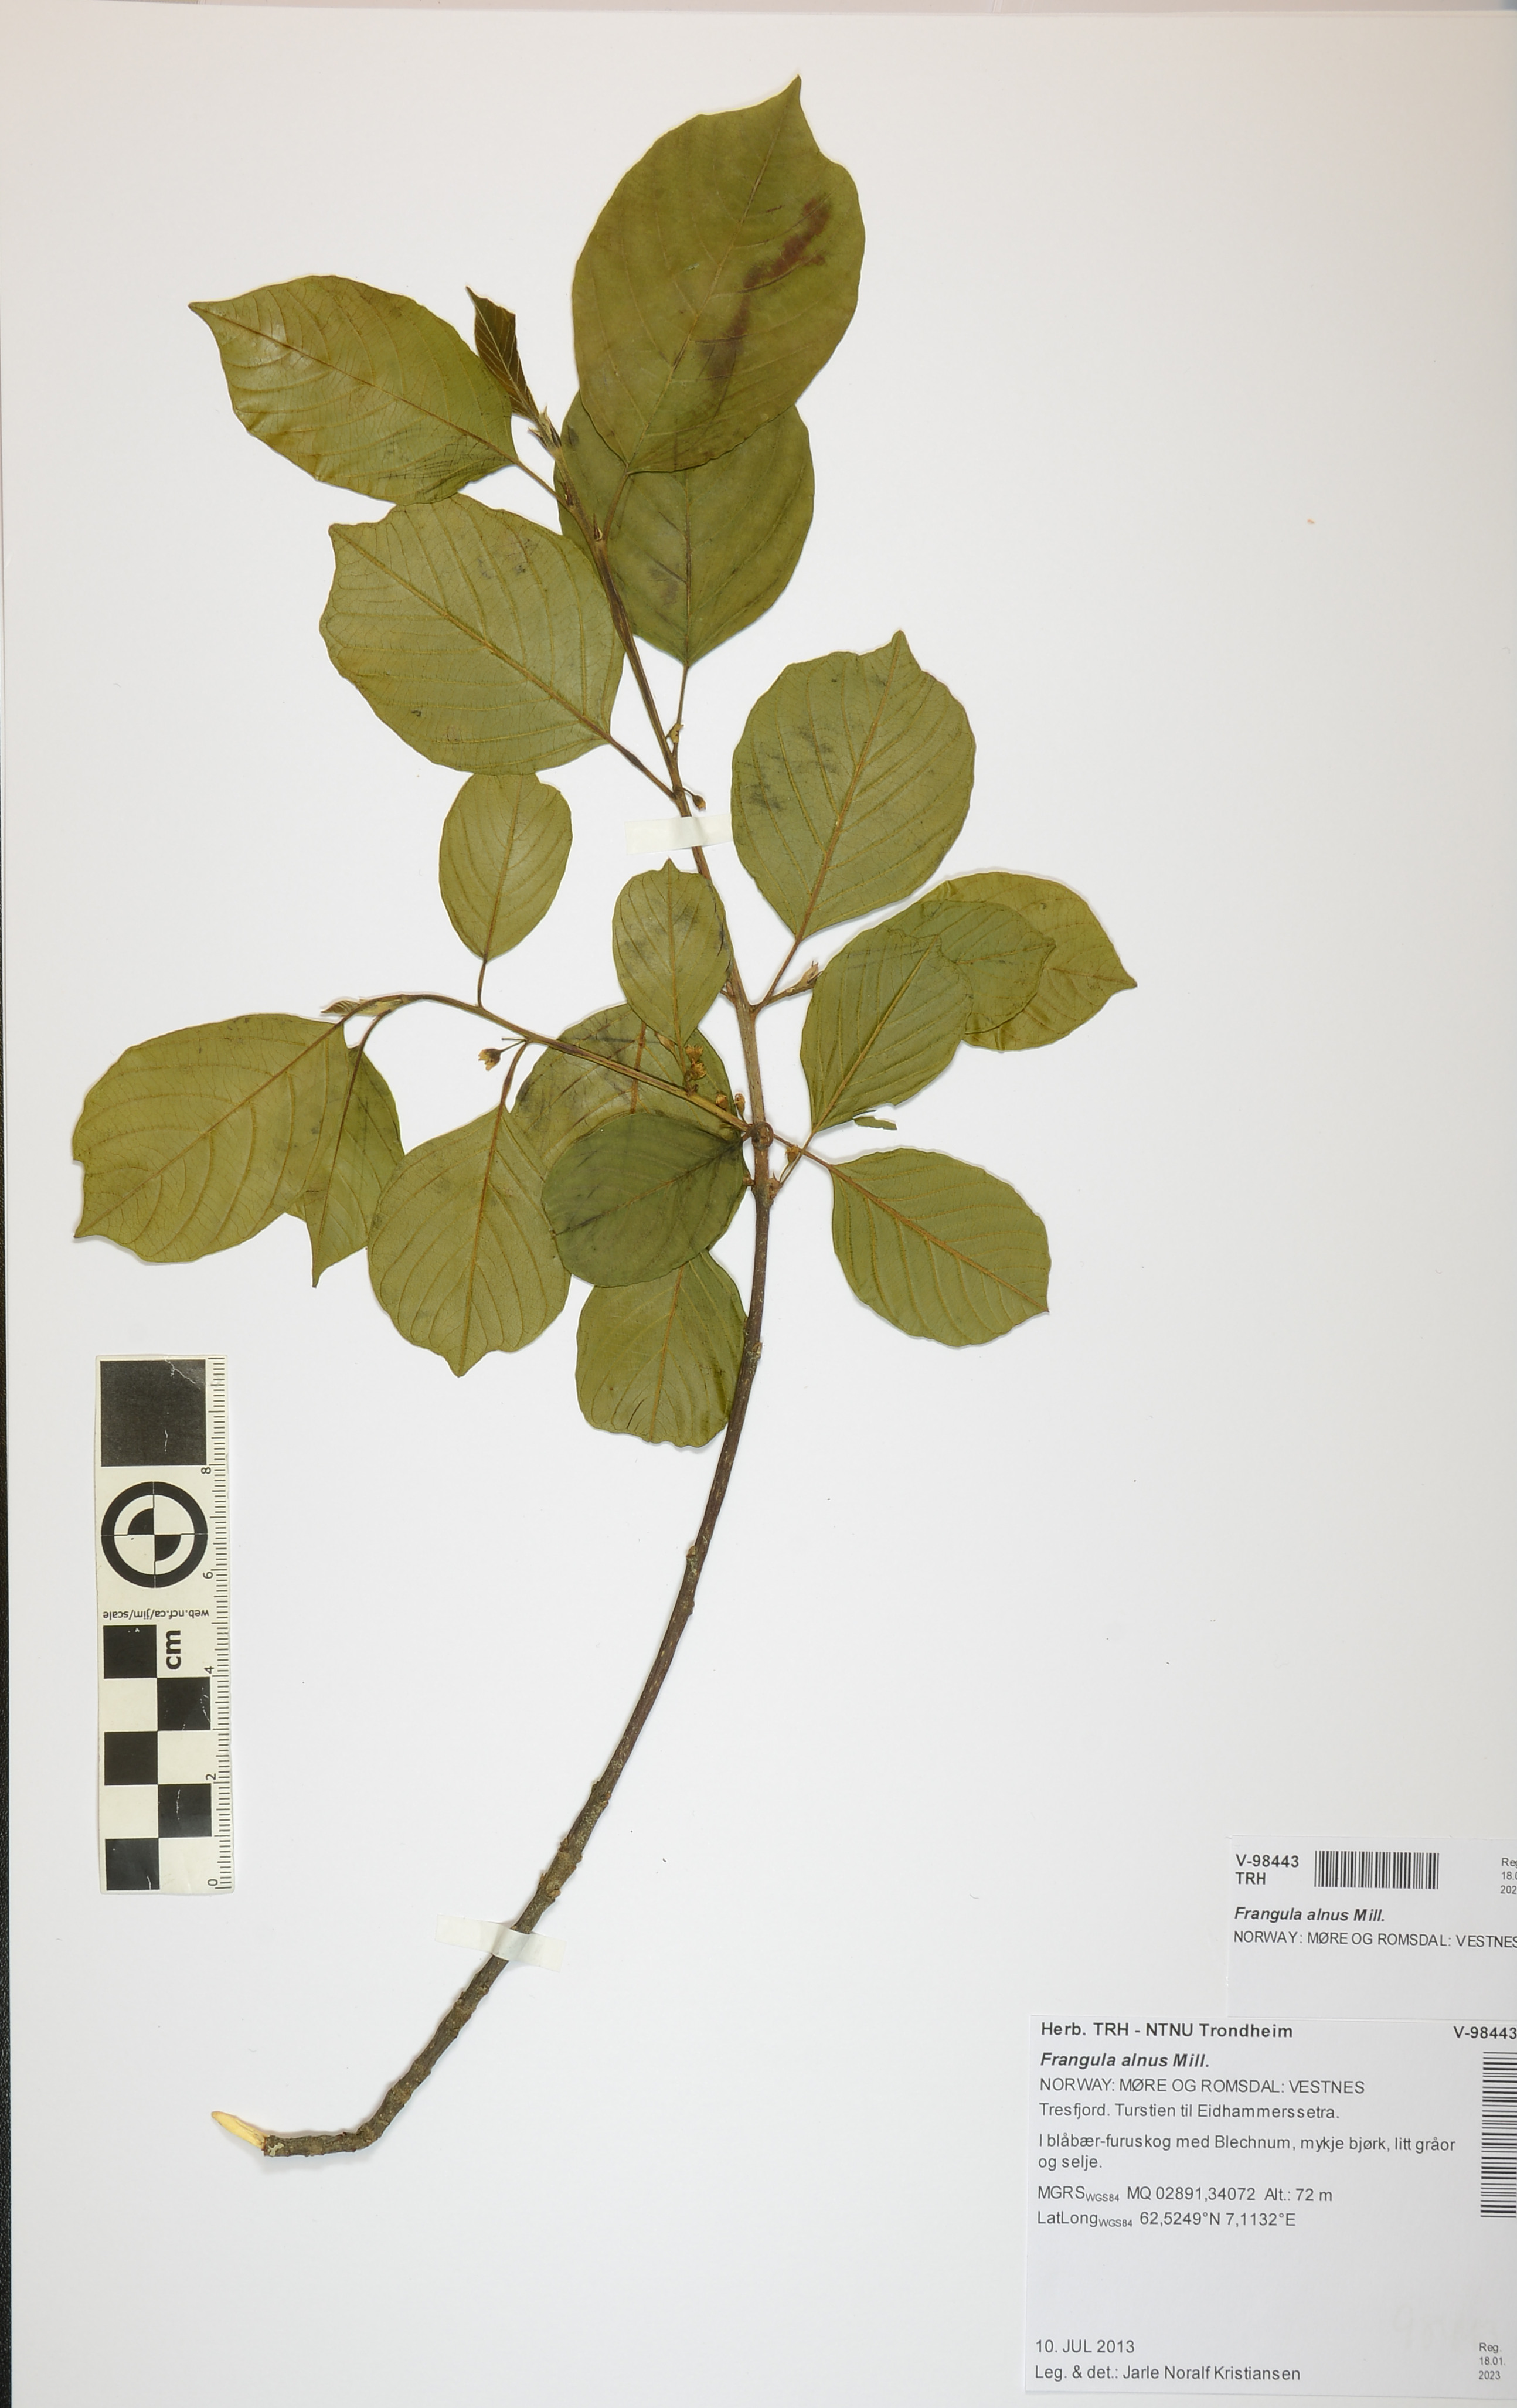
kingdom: Plantae
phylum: Tracheophyta
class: Magnoliopsida
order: Rosales
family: Rhamnaceae
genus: Frangula
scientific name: Frangula alnus
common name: Alder buckthorn
